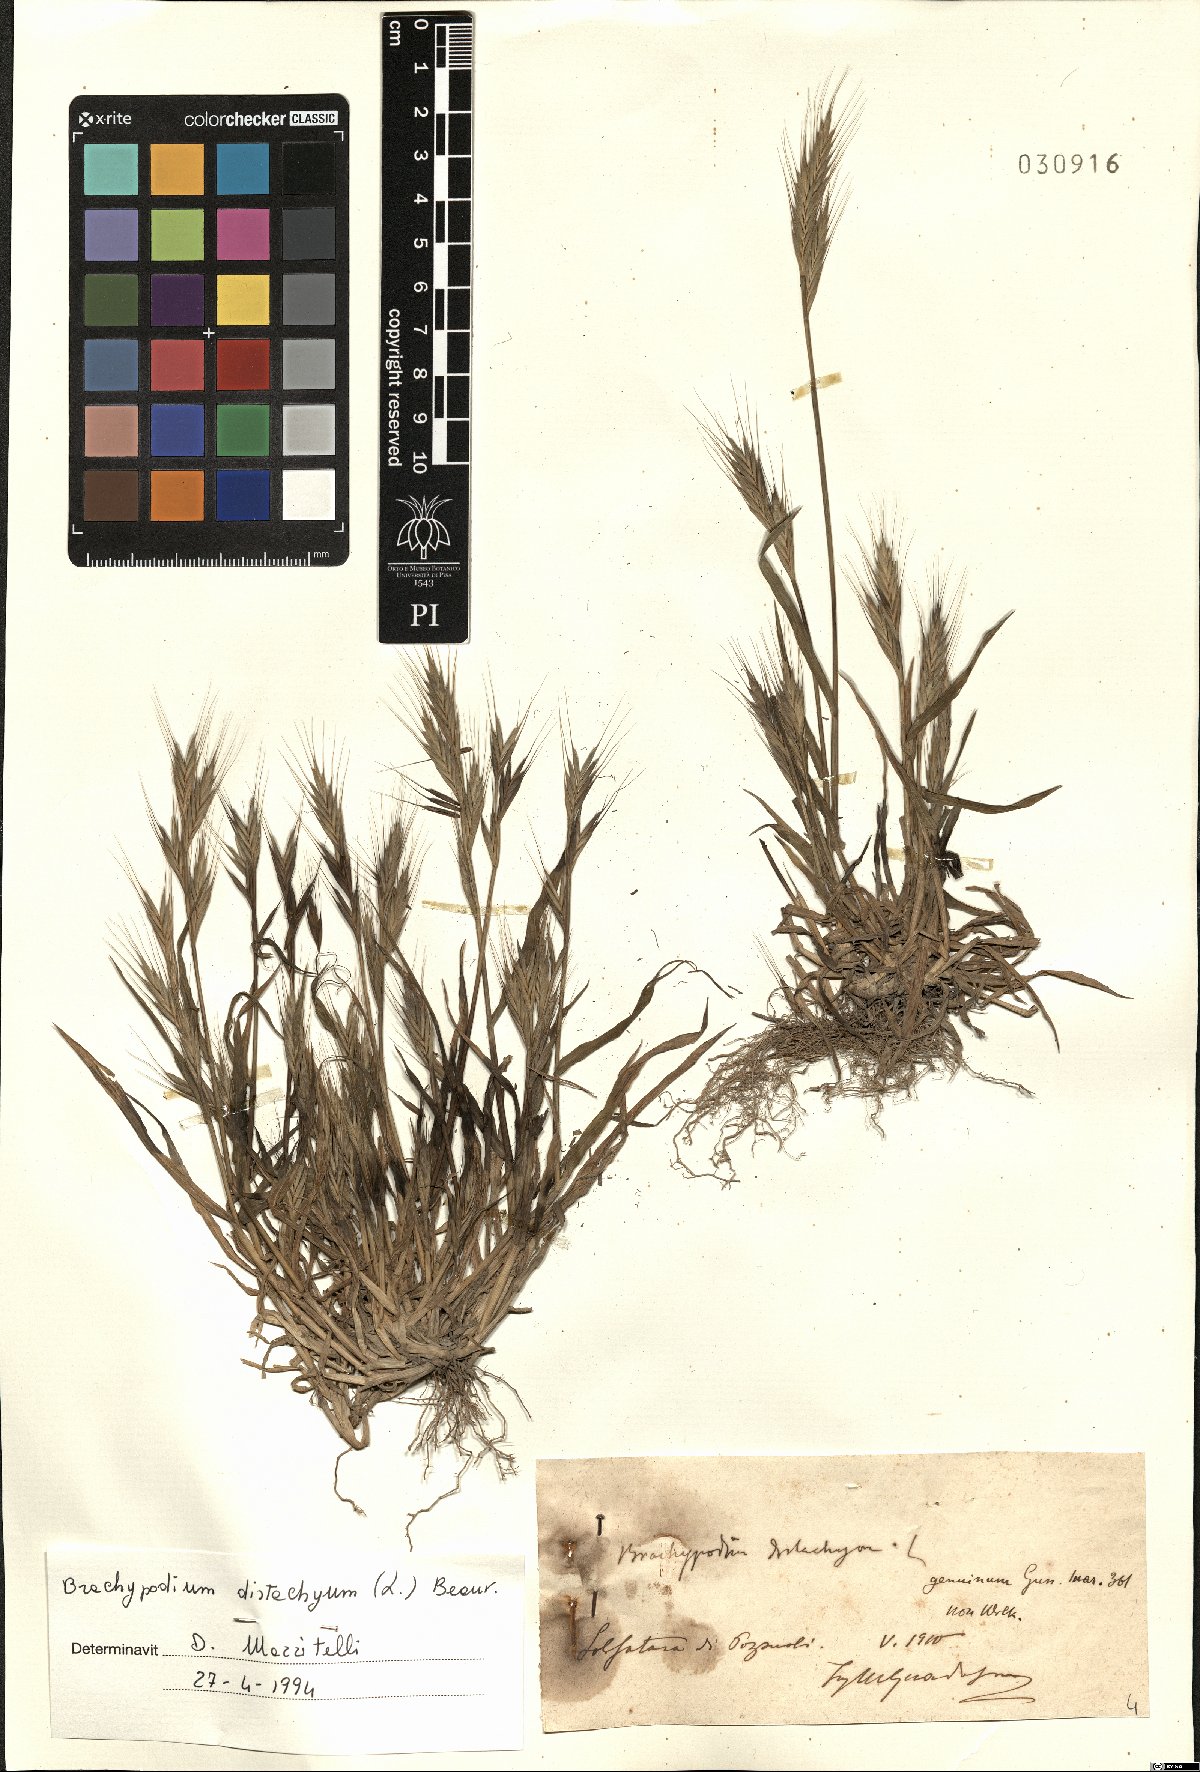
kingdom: Plantae
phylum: Tracheophyta
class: Liliopsida
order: Poales
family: Poaceae
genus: Brachypodium
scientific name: Brachypodium distachyon
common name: Stiff brome
